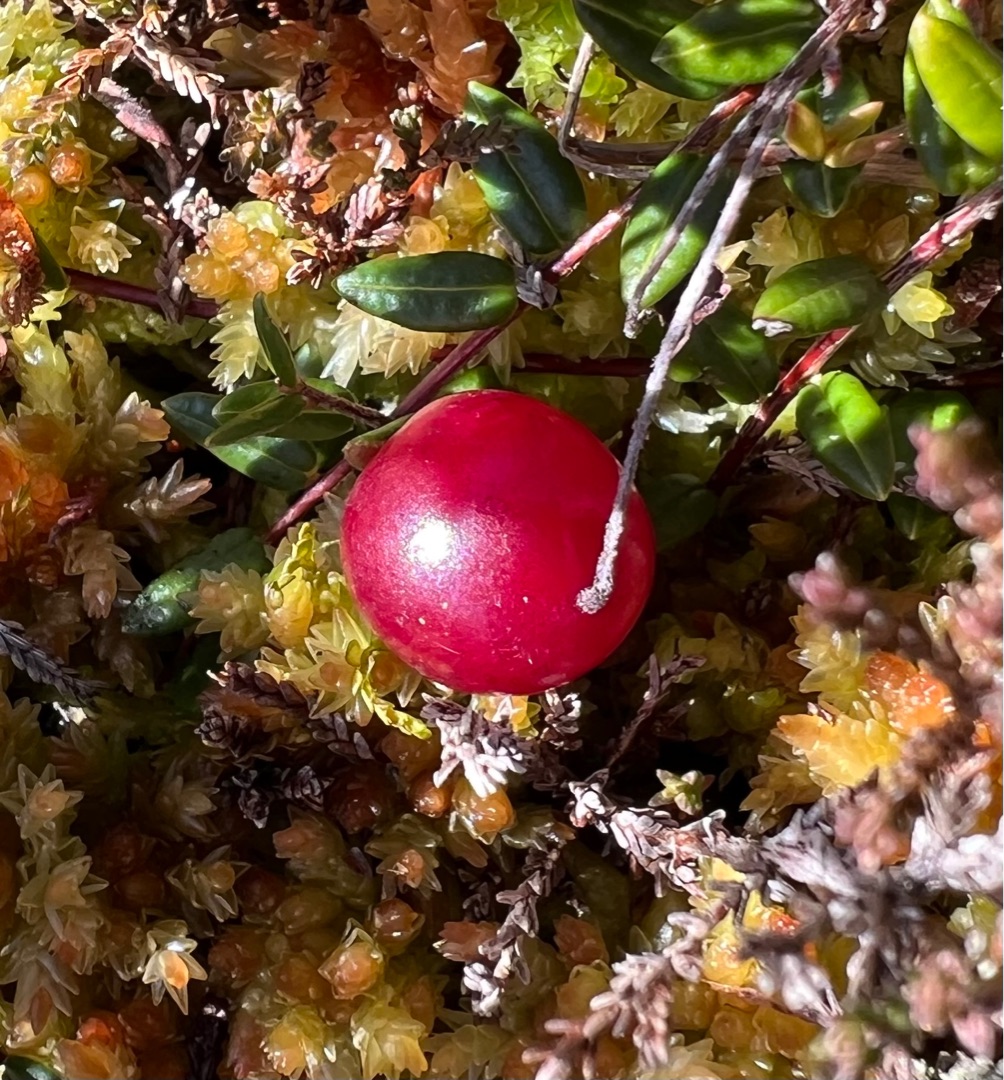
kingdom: Plantae
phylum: Tracheophyta
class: Magnoliopsida
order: Ericales
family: Ericaceae
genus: Vaccinium
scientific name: Vaccinium oxycoccos
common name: Tranebær
